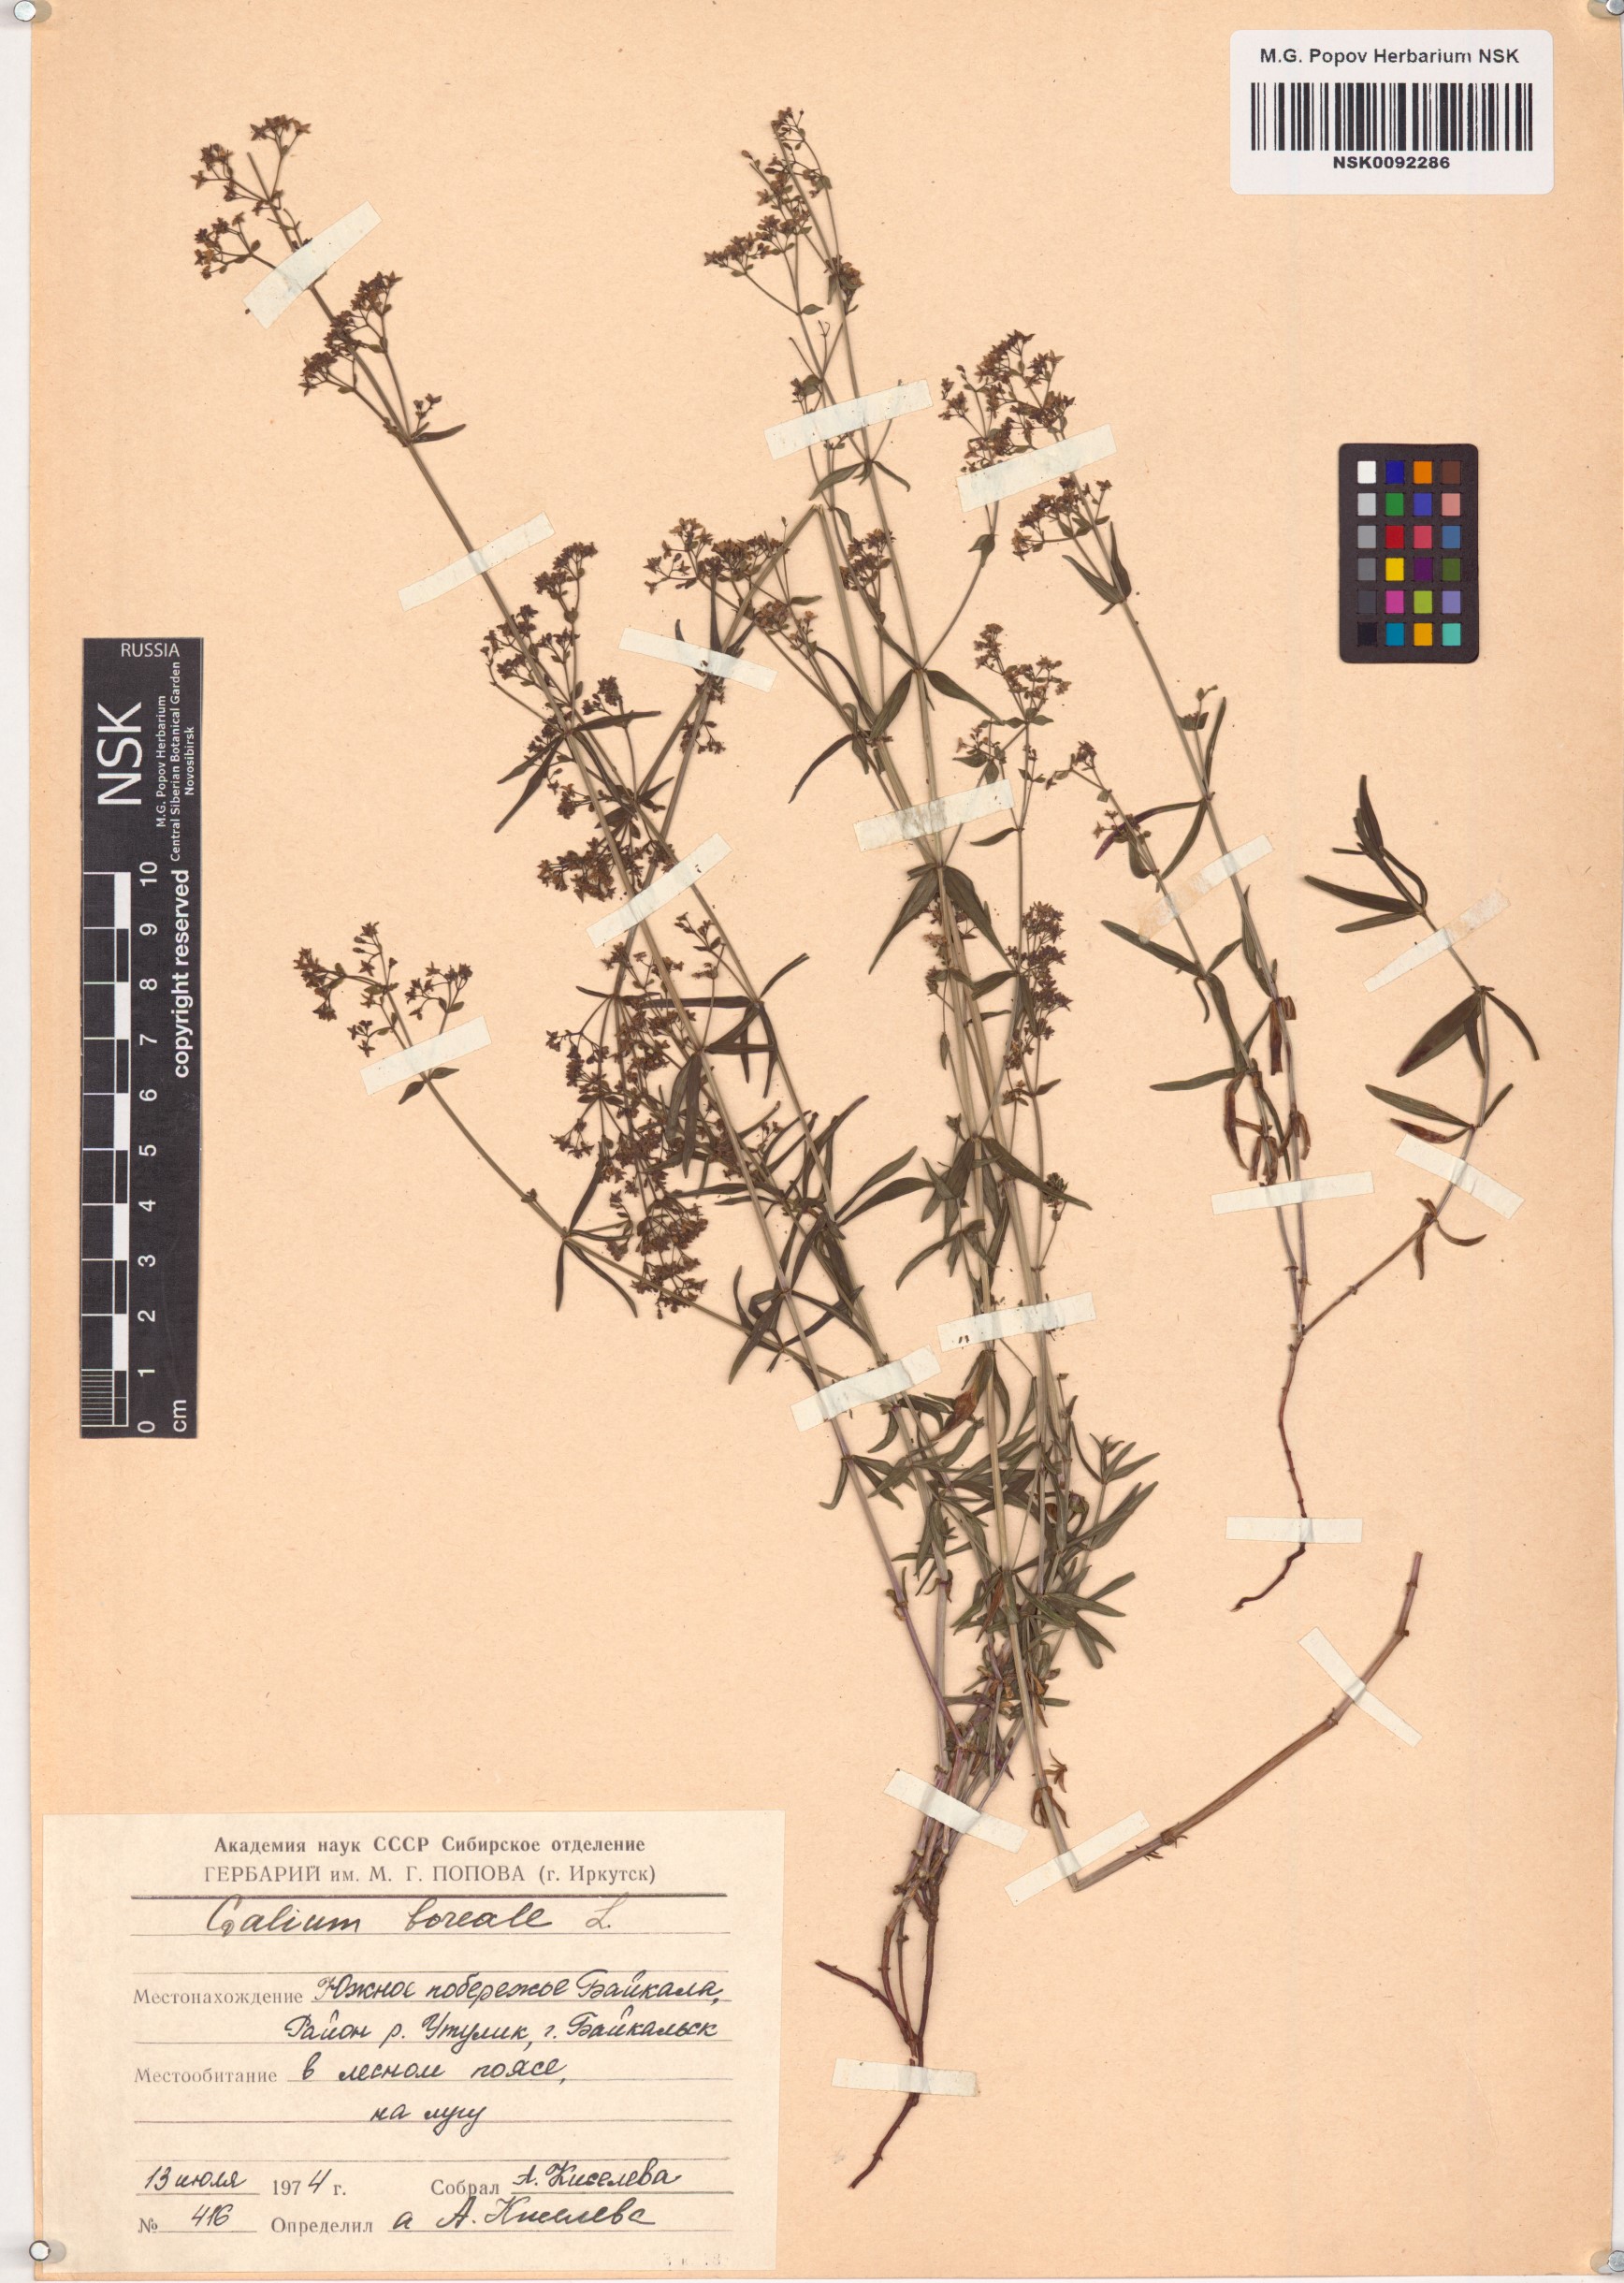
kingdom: Plantae
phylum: Tracheophyta
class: Magnoliopsida
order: Gentianales
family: Rubiaceae
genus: Galium
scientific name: Galium boreale
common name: Northern bedstraw
